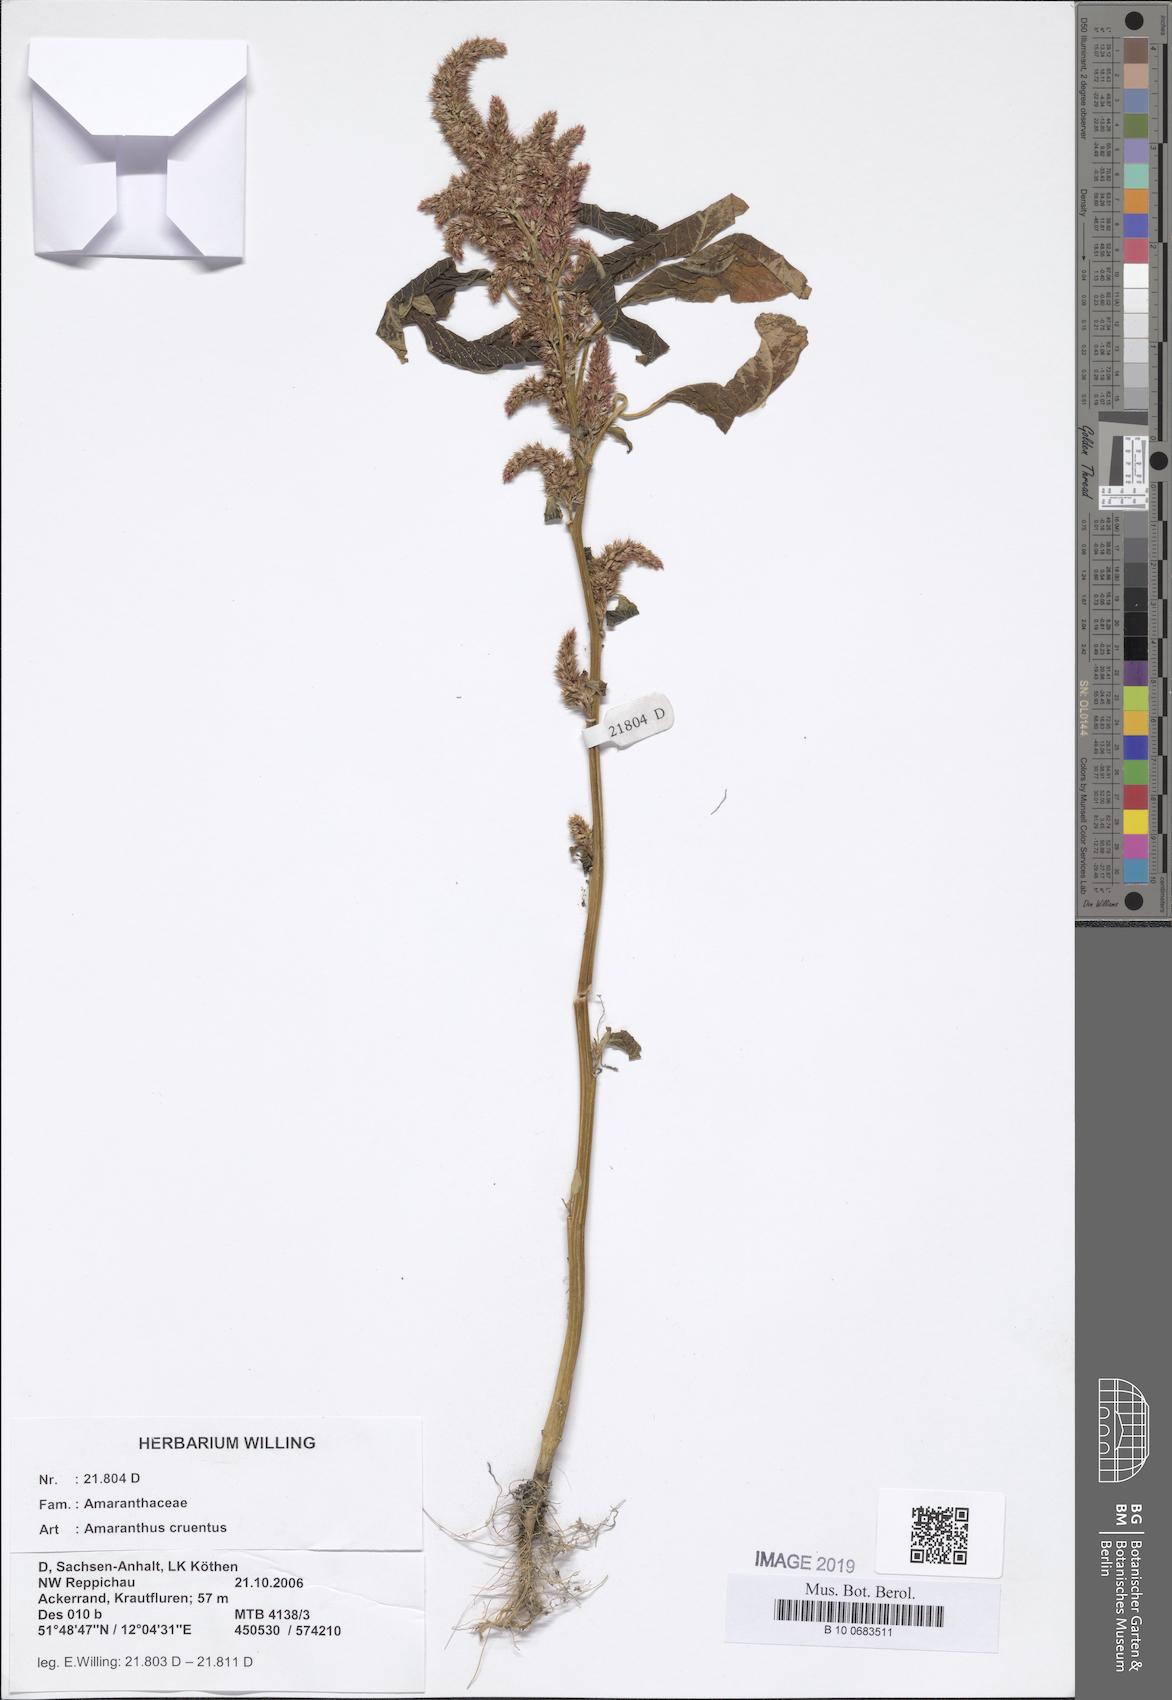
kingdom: Plantae
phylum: Tracheophyta
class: Magnoliopsida
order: Caryophyllales
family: Amaranthaceae
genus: Amaranthus
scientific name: Amaranthus cruentus
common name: Purple amaranth
